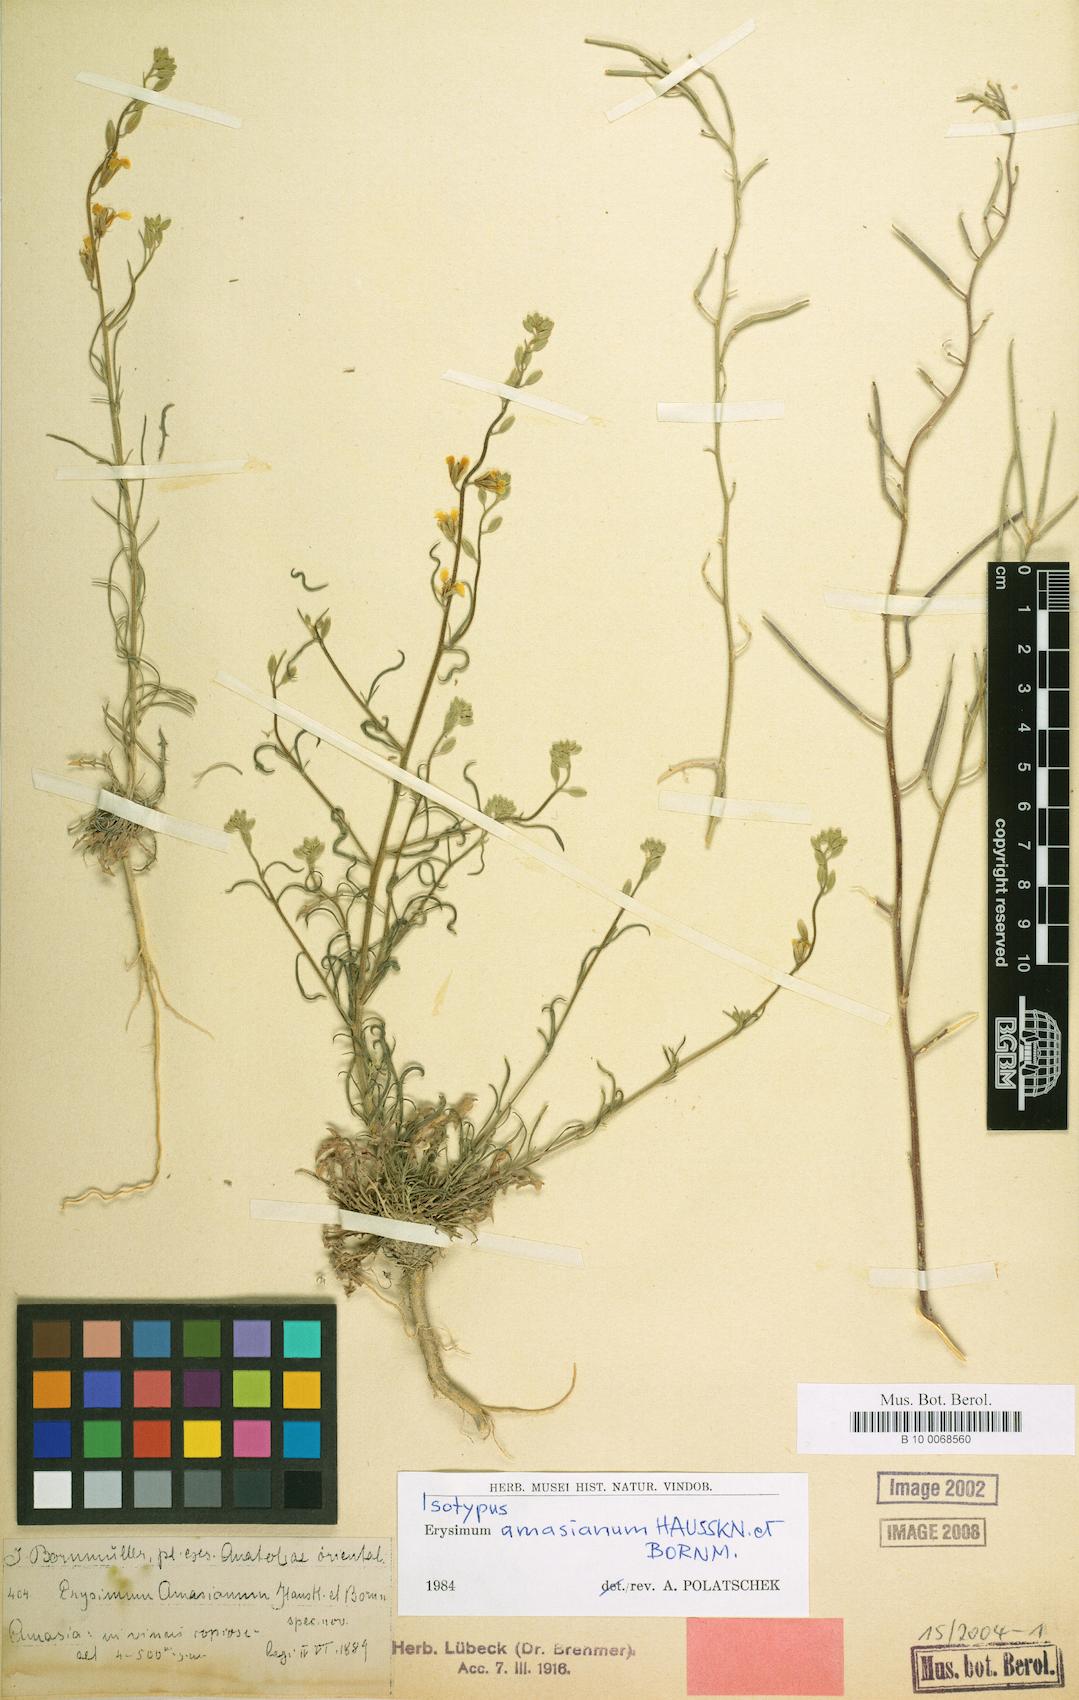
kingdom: Plantae
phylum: Tracheophyta
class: Magnoliopsida
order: Brassicales
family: Brassicaceae
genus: Erysimum
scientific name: Erysimum amasianum
